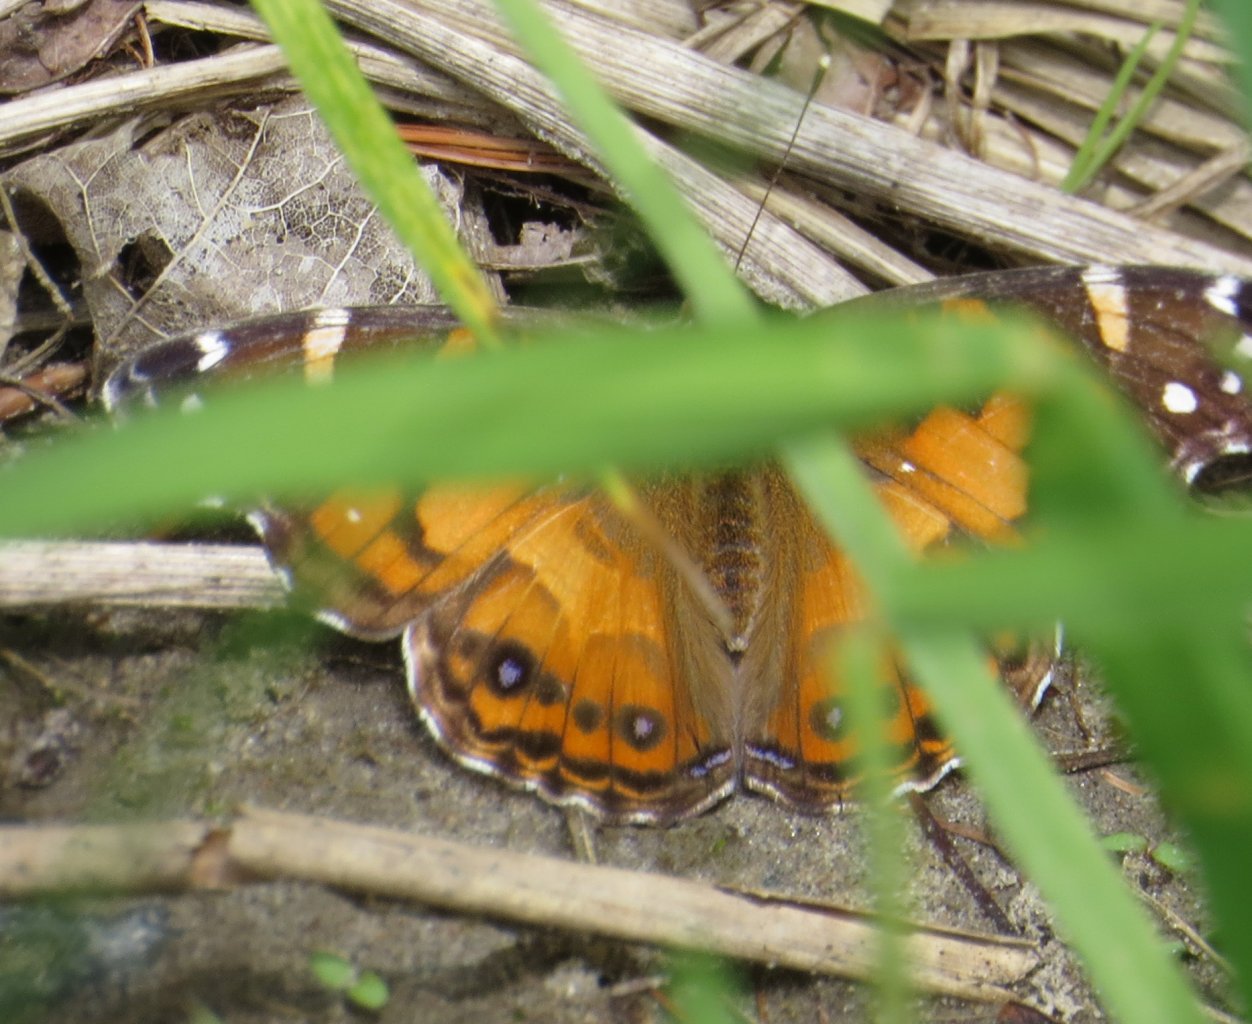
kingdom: Animalia
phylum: Arthropoda
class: Insecta
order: Lepidoptera
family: Nymphalidae
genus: Vanessa
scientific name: Vanessa virginiensis
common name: American Lady
